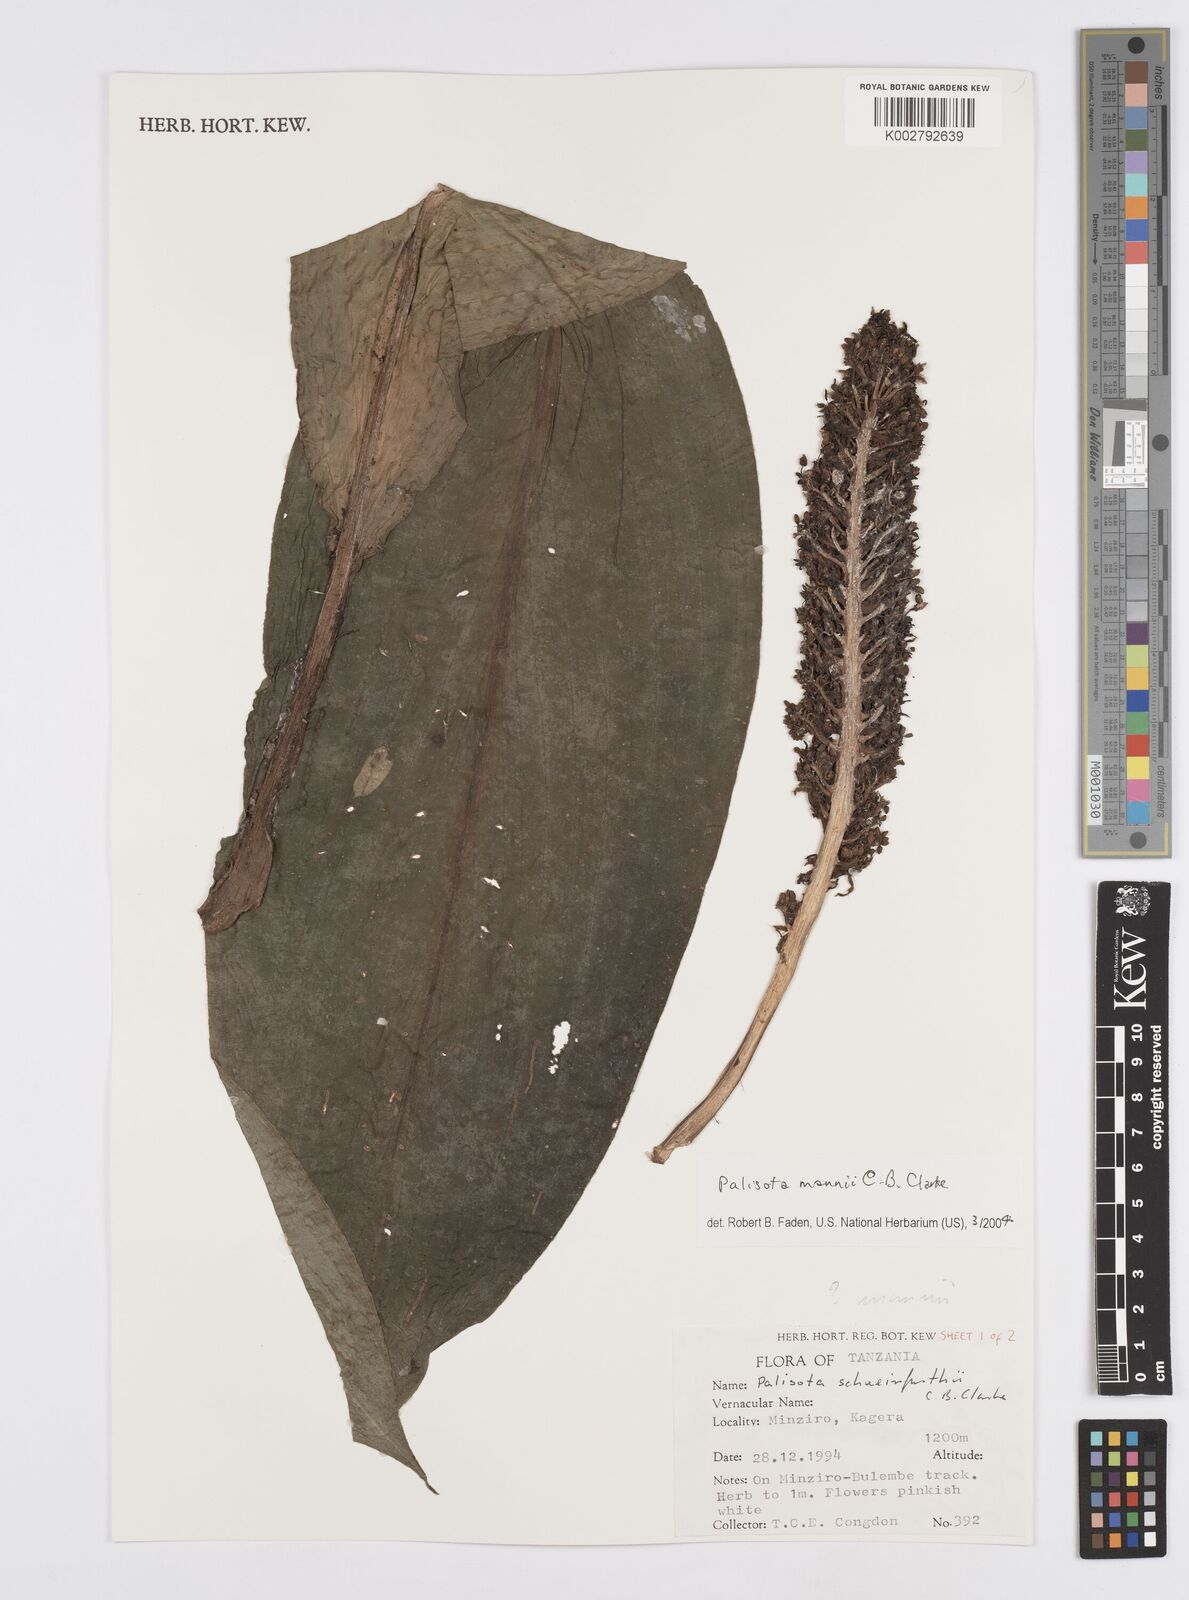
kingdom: Plantae
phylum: Tracheophyta
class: Liliopsida
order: Commelinales
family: Commelinaceae
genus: Palisota
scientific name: Palisota mannii
